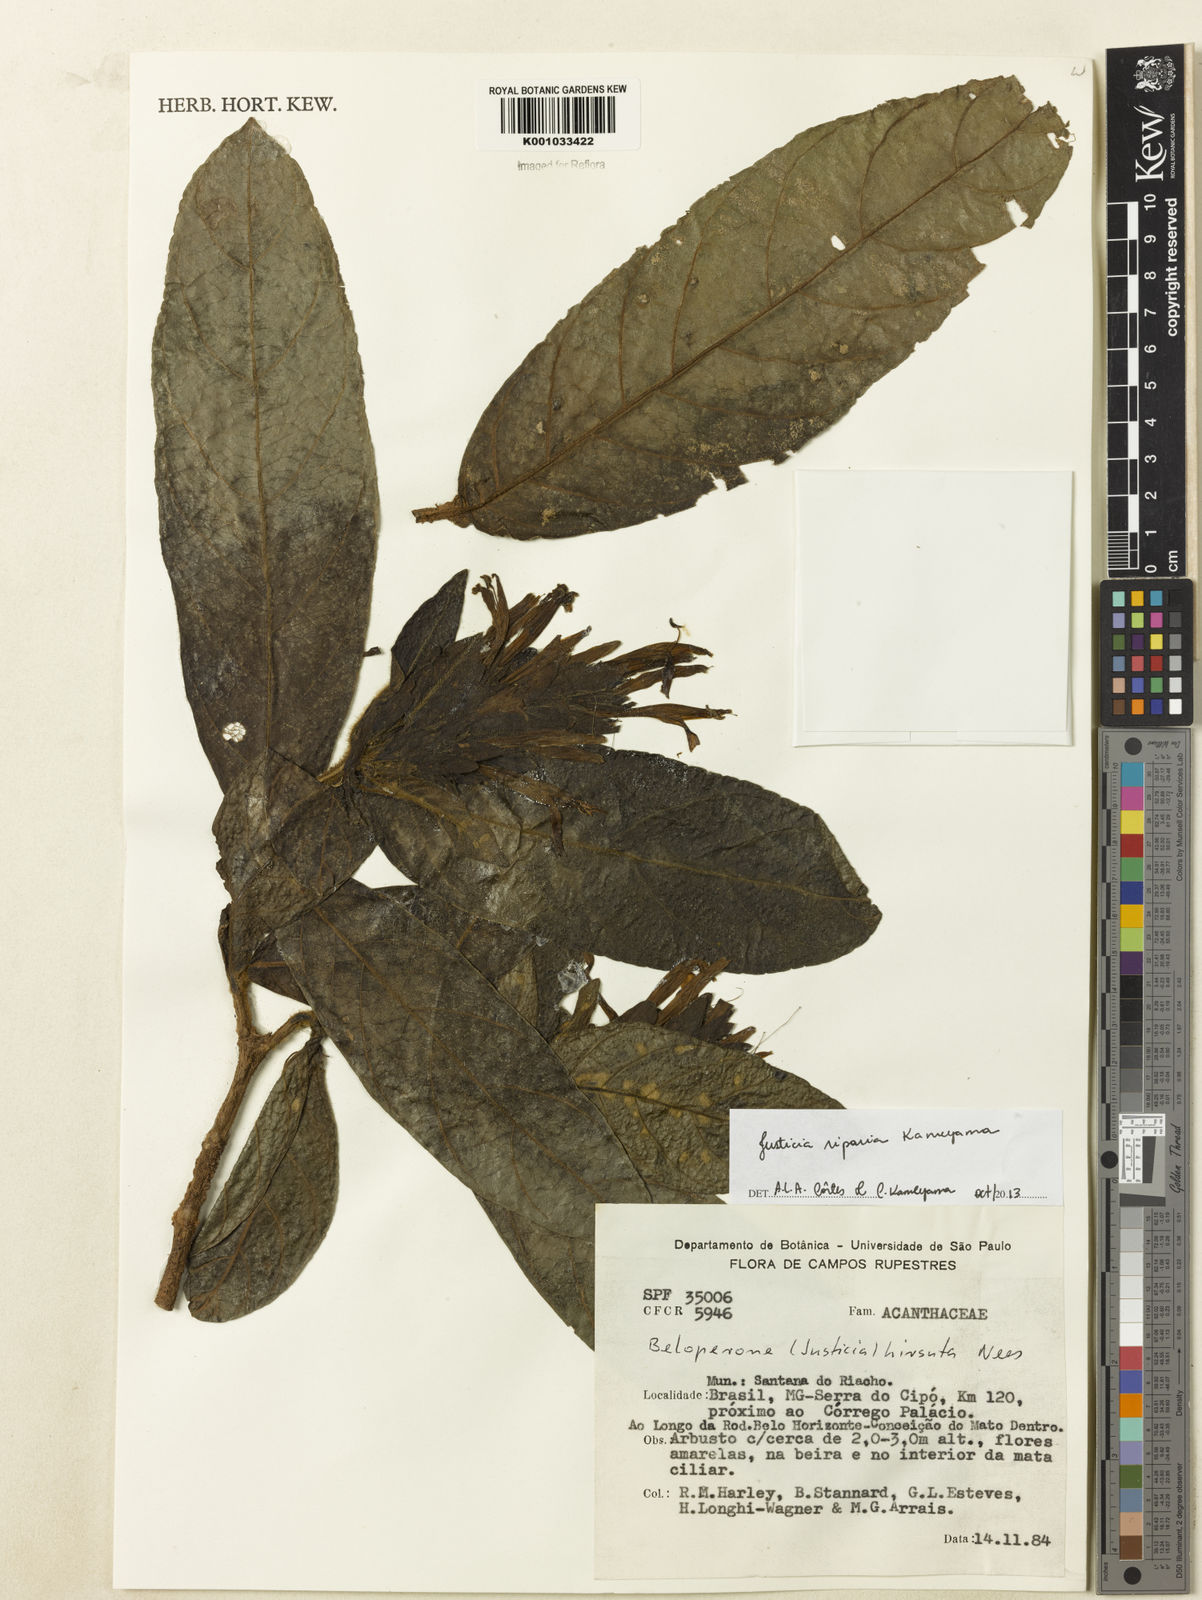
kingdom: Plantae
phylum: Tracheophyta
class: Magnoliopsida
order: Lamiales
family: Acanthaceae
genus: Justicia
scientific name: Justicia riparia
